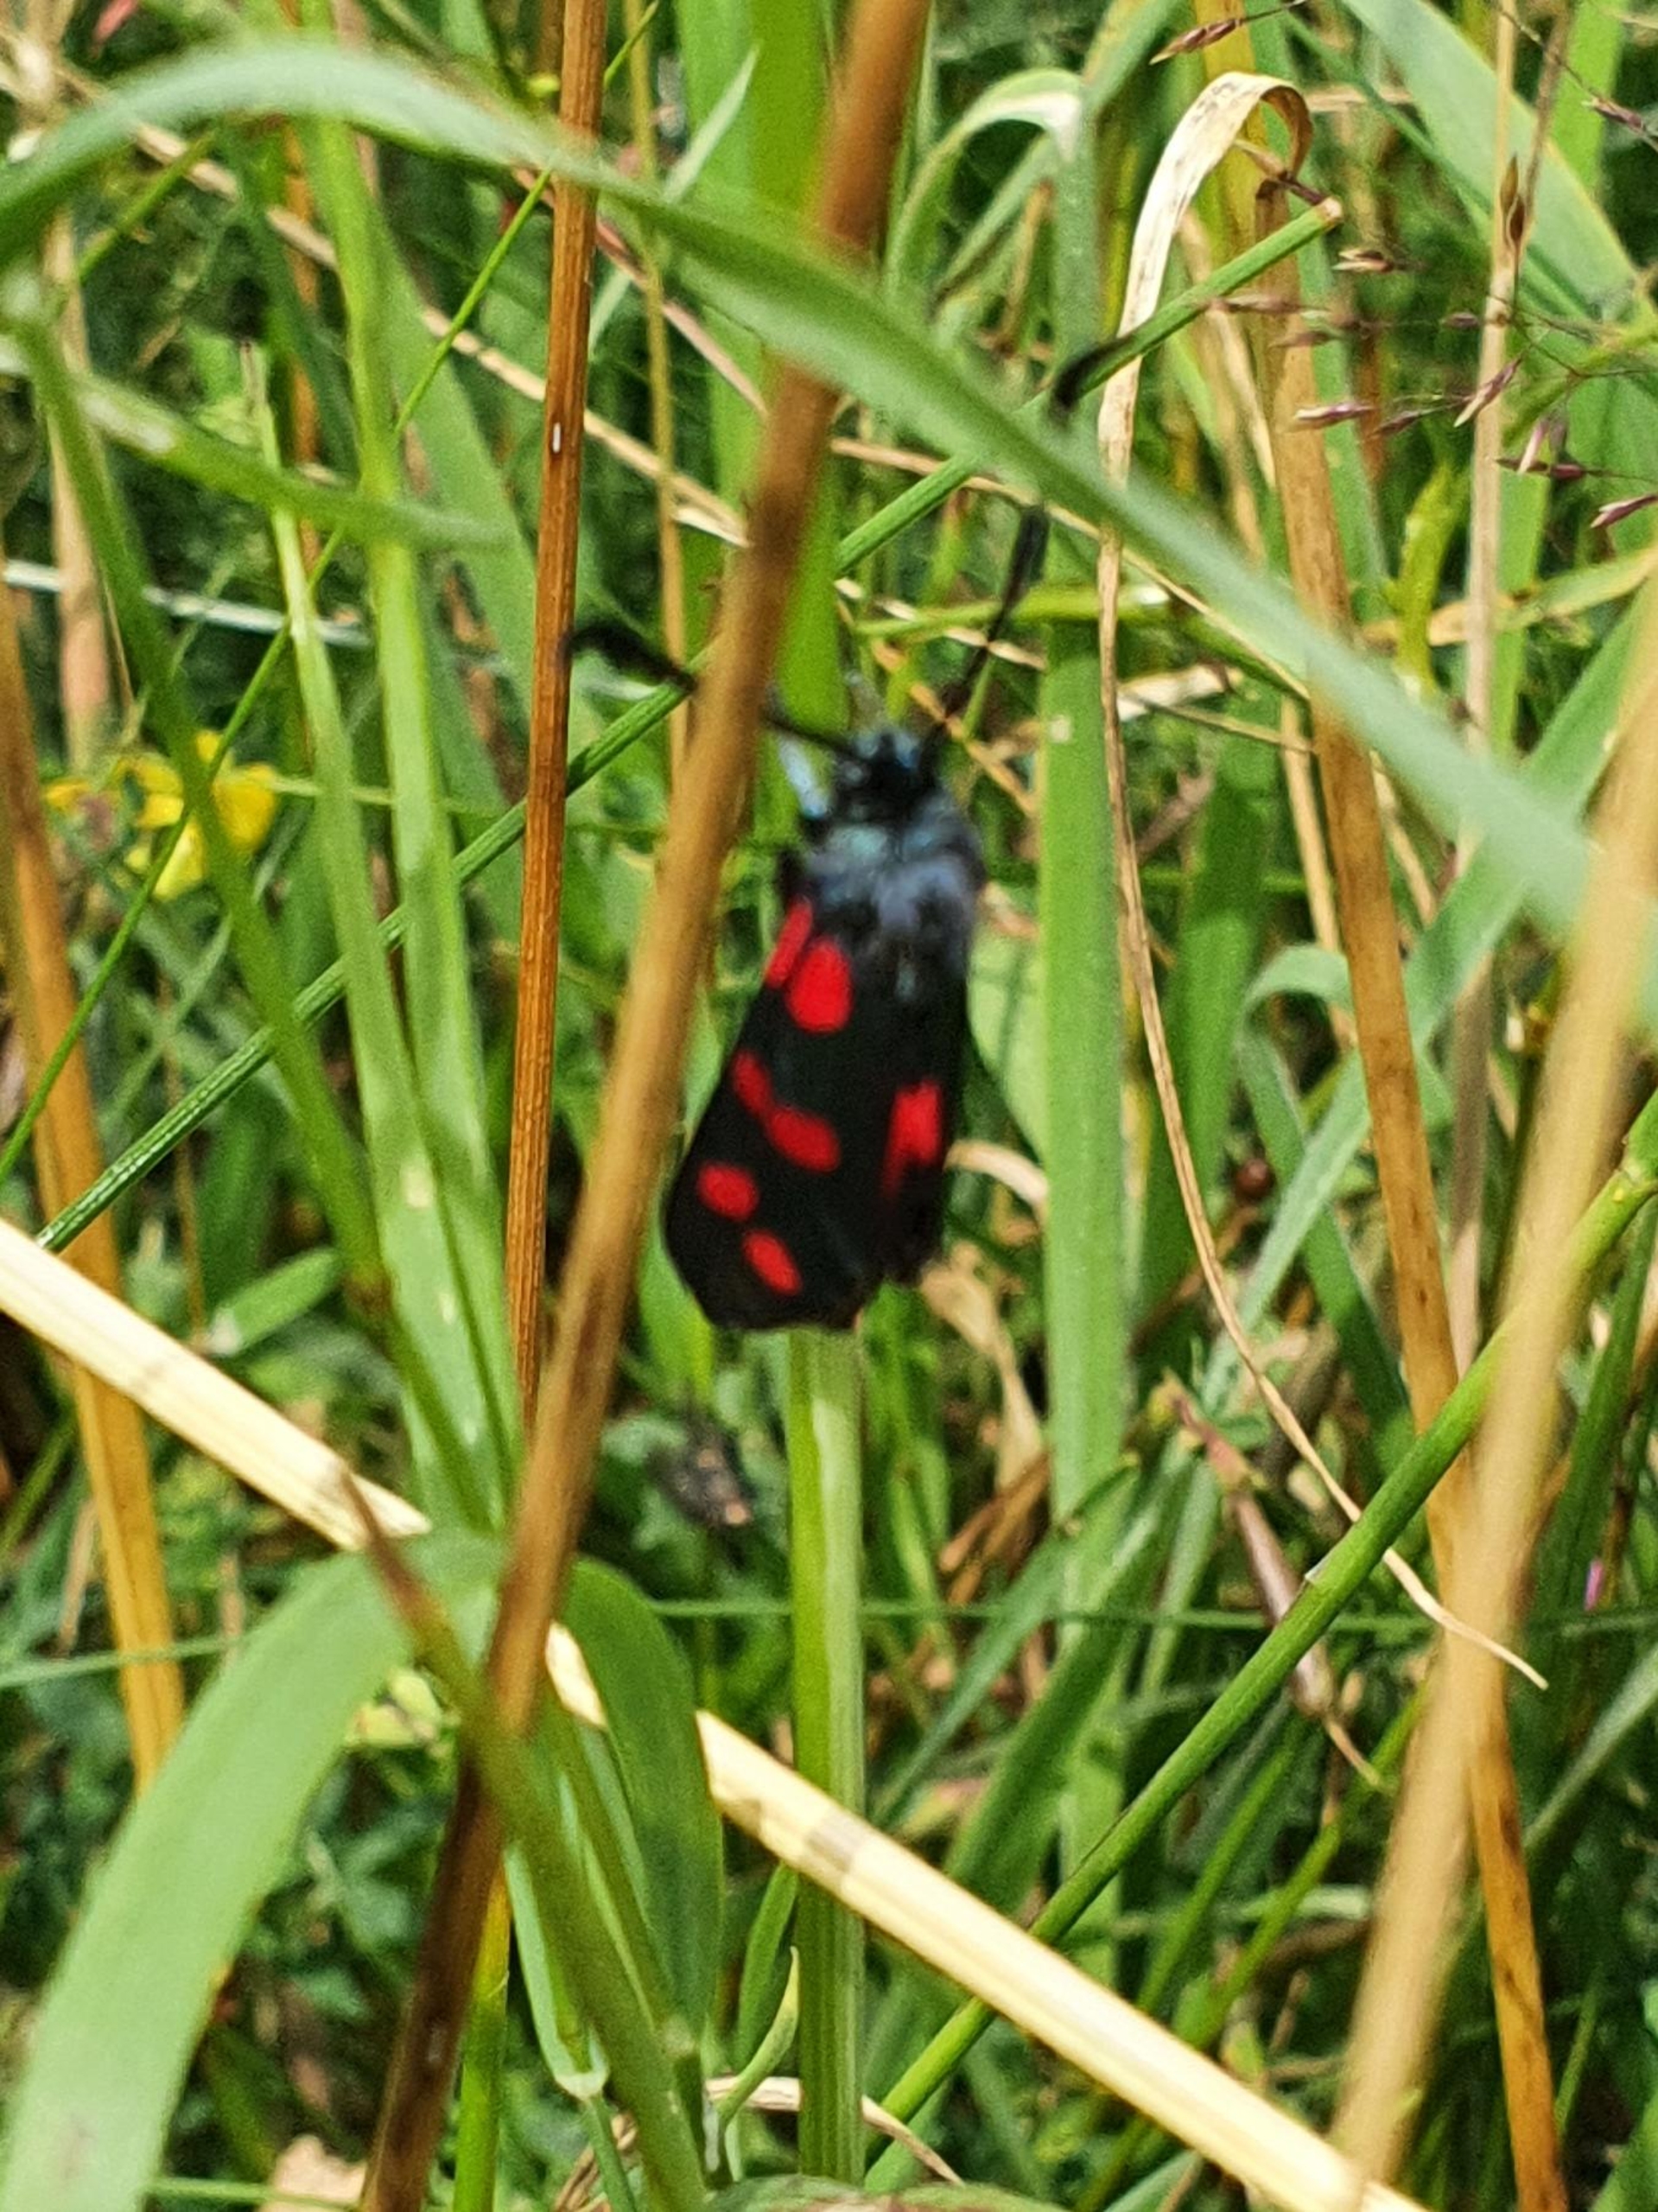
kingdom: Animalia
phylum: Arthropoda
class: Insecta
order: Lepidoptera
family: Zygaenidae
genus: Zygaena
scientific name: Zygaena filipendulae
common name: Seksplettet køllesværmer
